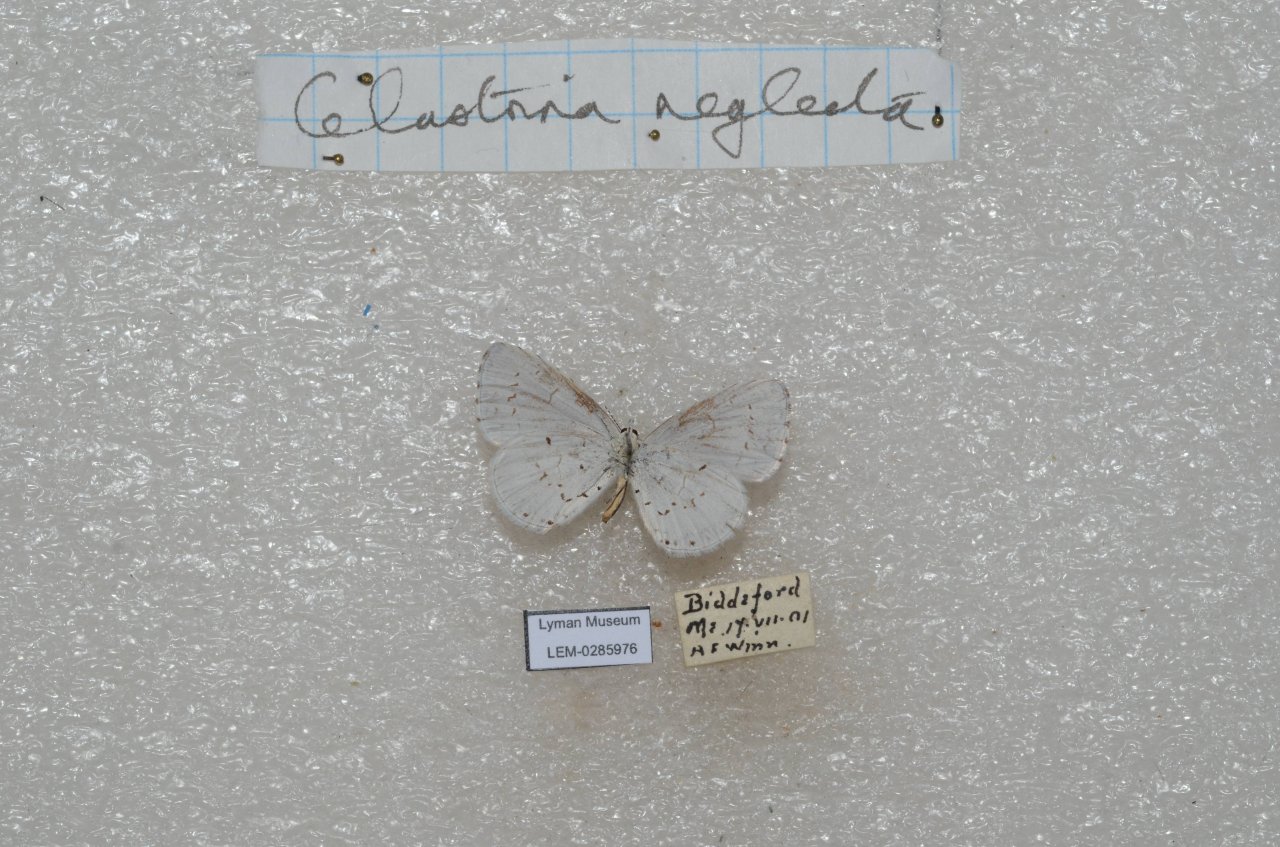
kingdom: Animalia
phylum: Arthropoda
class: Insecta
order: Lepidoptera
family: Lycaenidae
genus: Cyaniris
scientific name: Cyaniris neglecta
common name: Summer Azure
